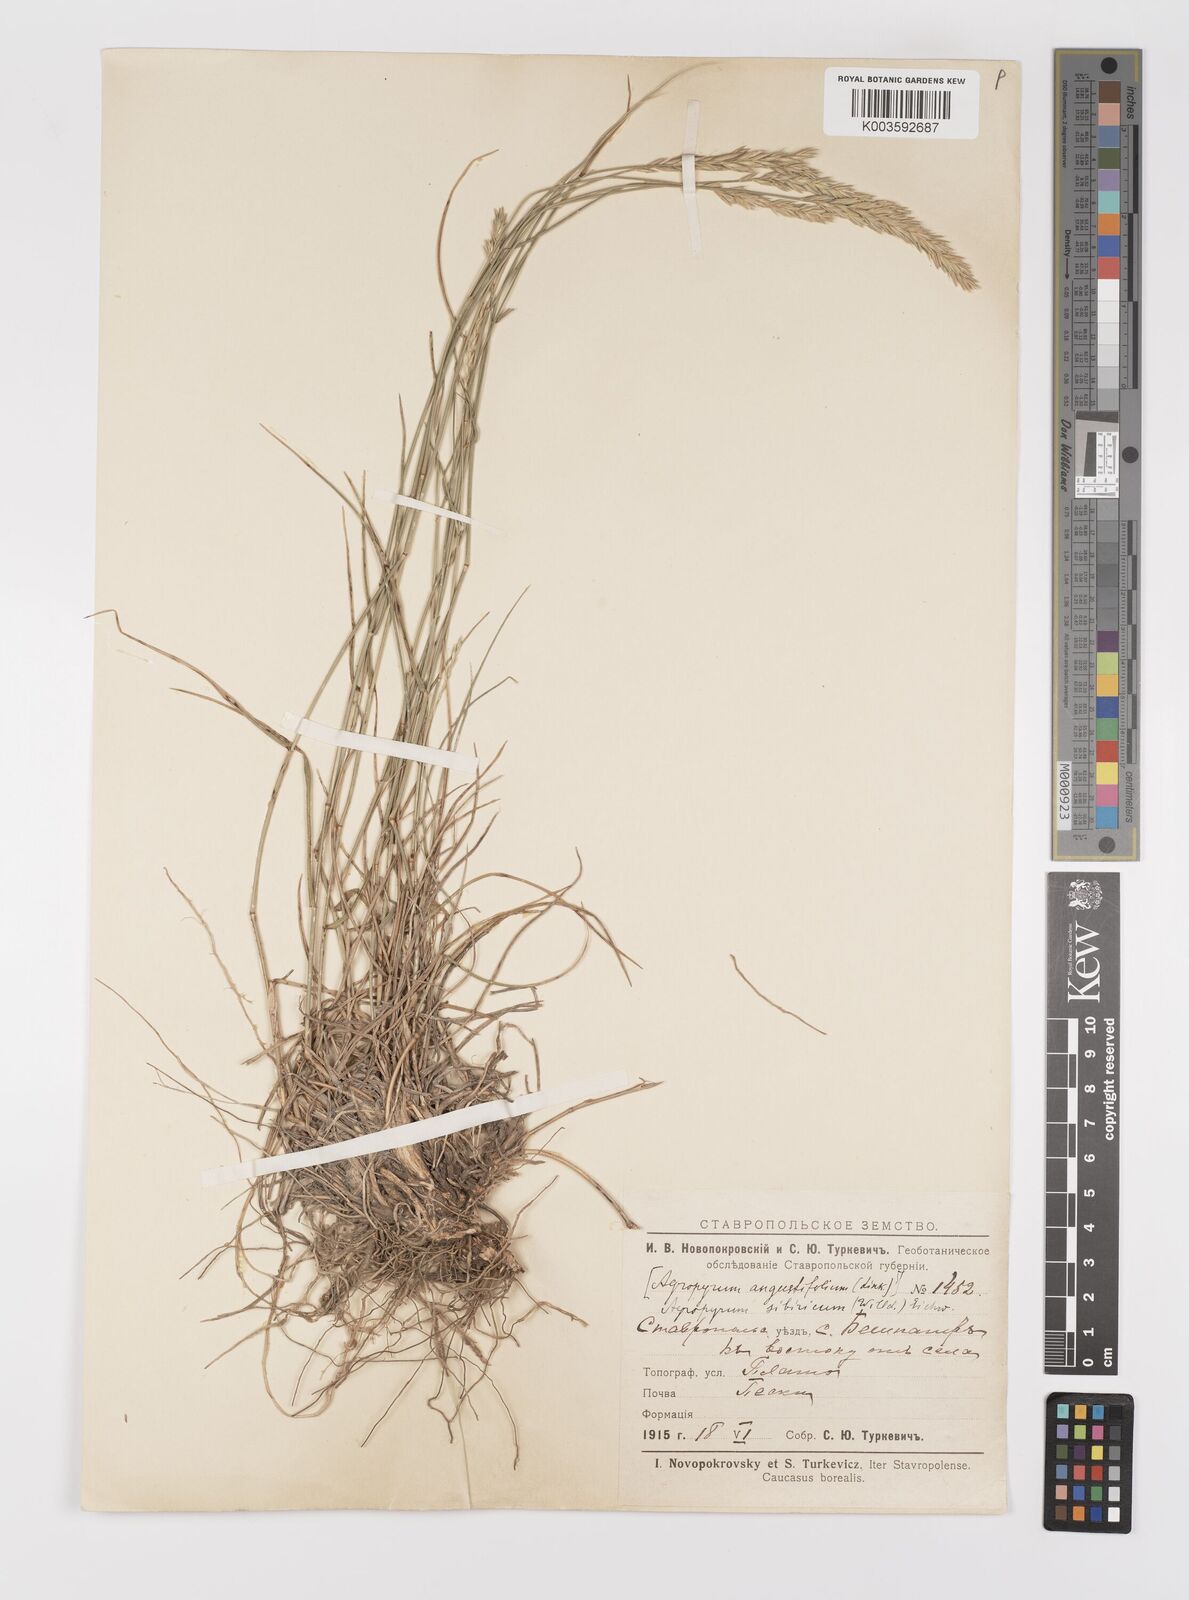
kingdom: Plantae
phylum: Tracheophyta
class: Liliopsida
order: Poales
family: Poaceae
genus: Agropyron
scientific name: Agropyron fragile
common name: Siberian wheatgrass
